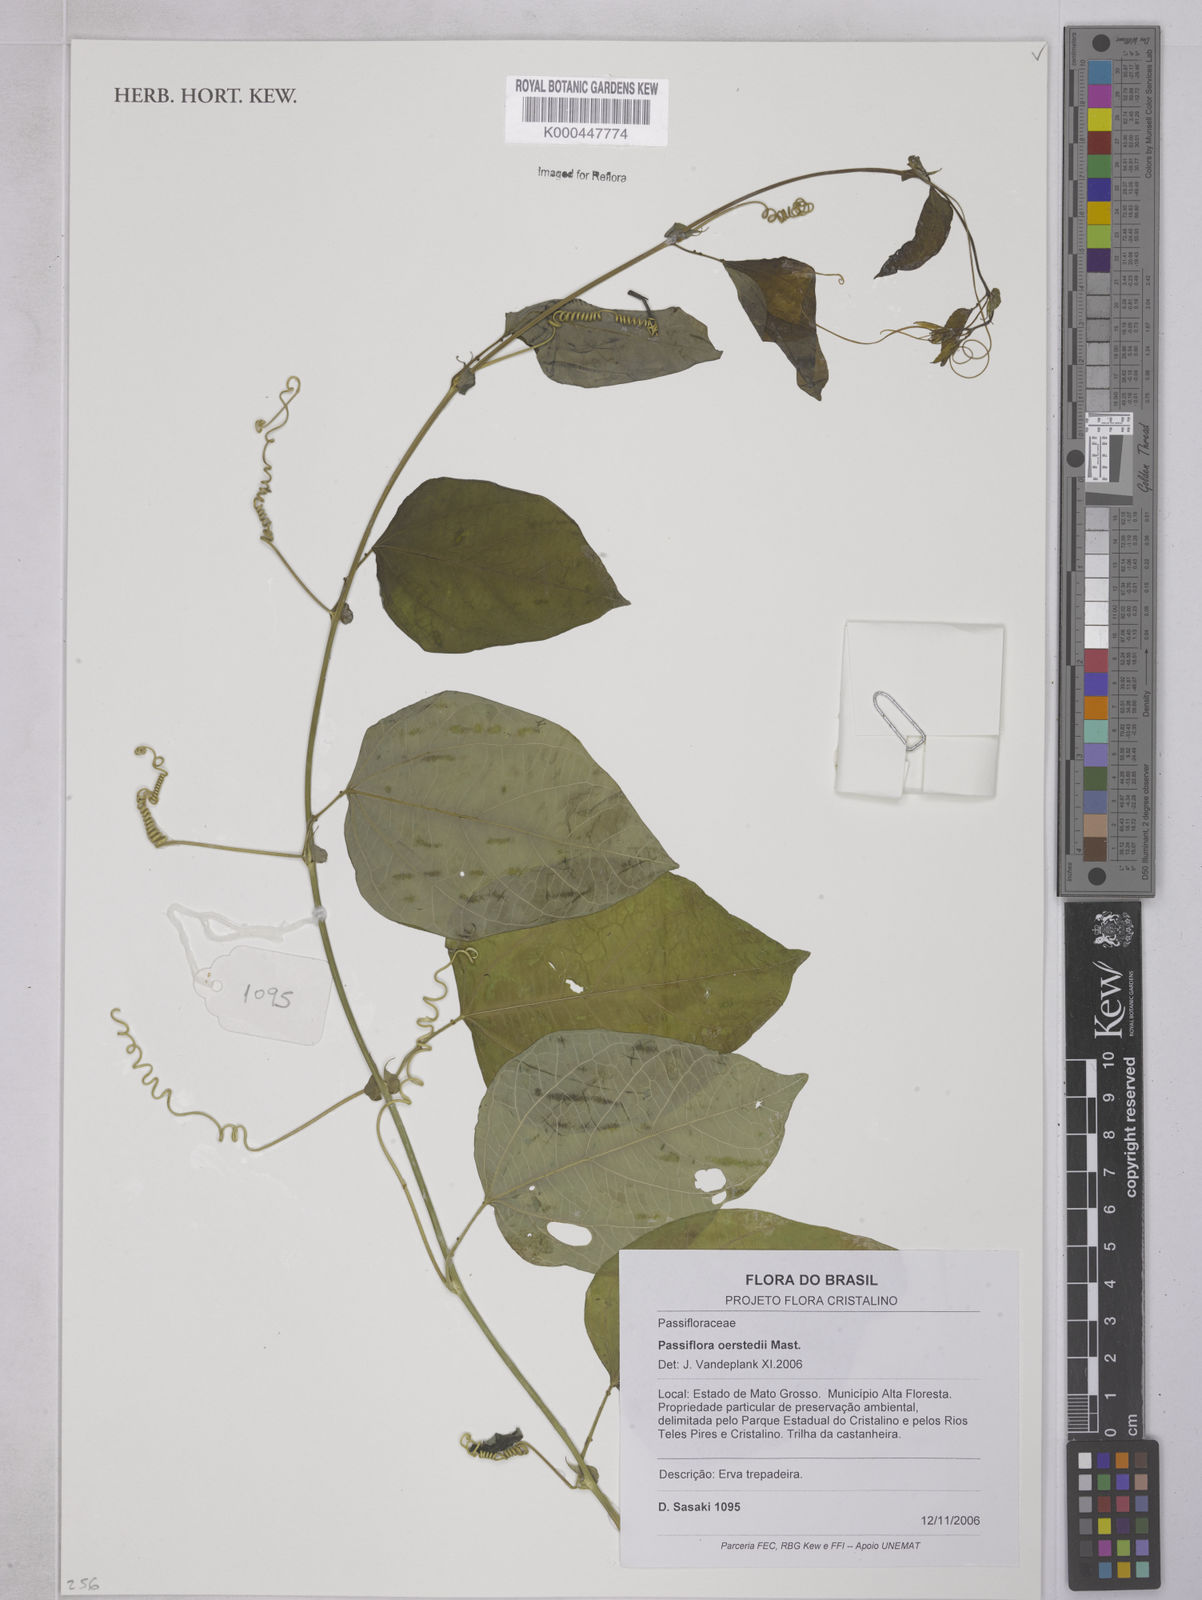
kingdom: Plantae
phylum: Tracheophyta
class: Magnoliopsida
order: Malpighiales
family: Passifloraceae
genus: Passiflora
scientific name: Passiflora oerstedii
